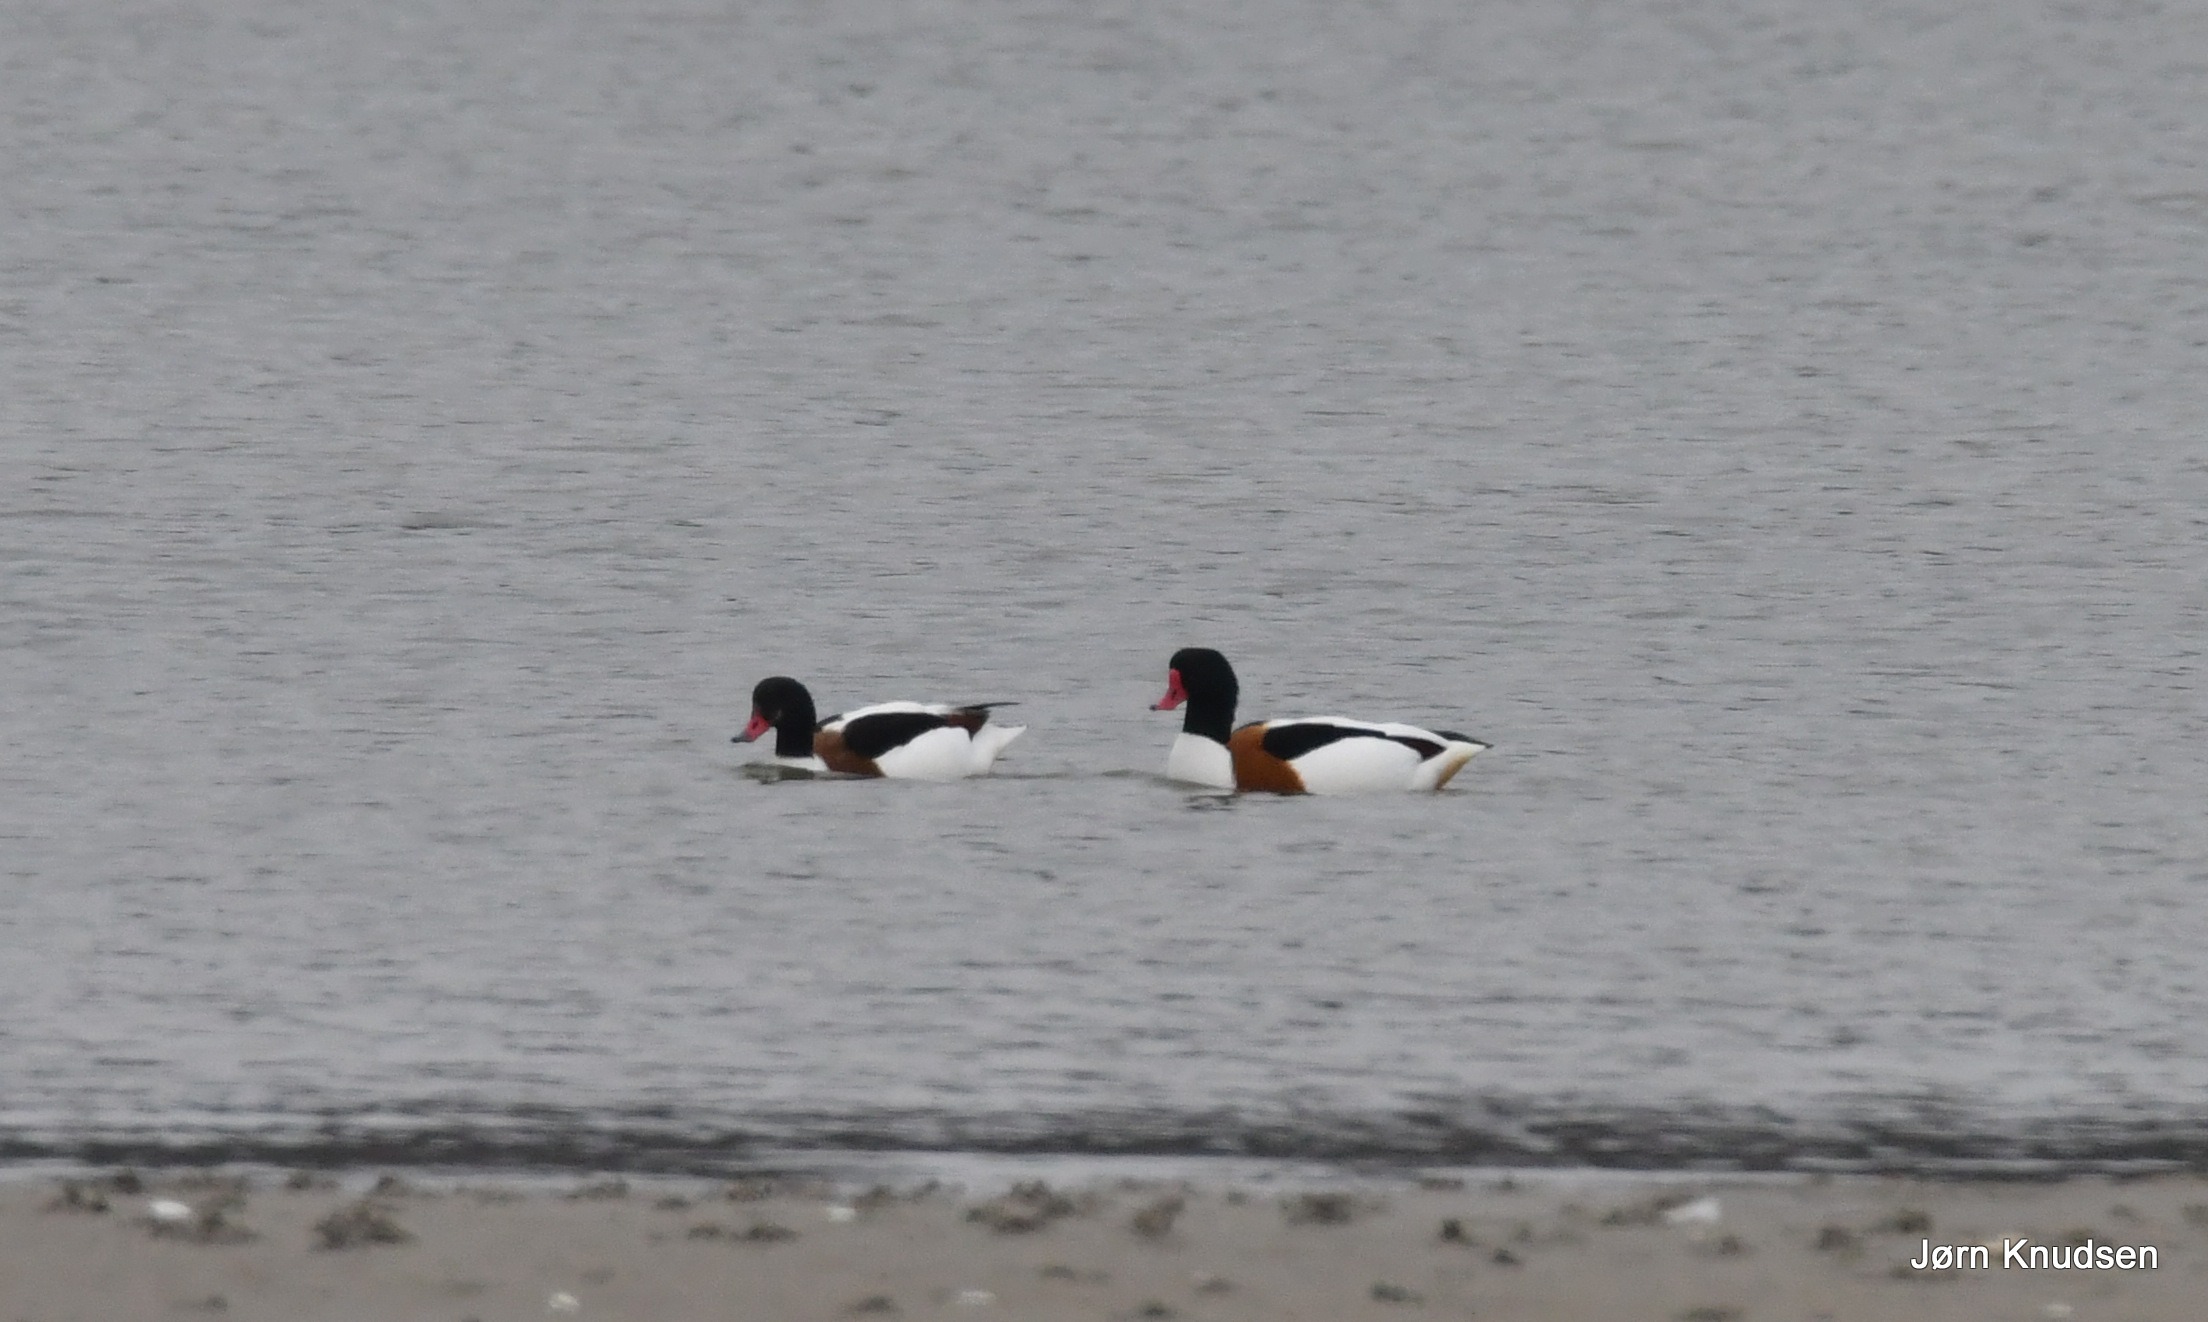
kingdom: Animalia
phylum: Chordata
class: Aves
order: Anseriformes
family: Anatidae
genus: Tadorna
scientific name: Tadorna tadorna
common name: Gravand
